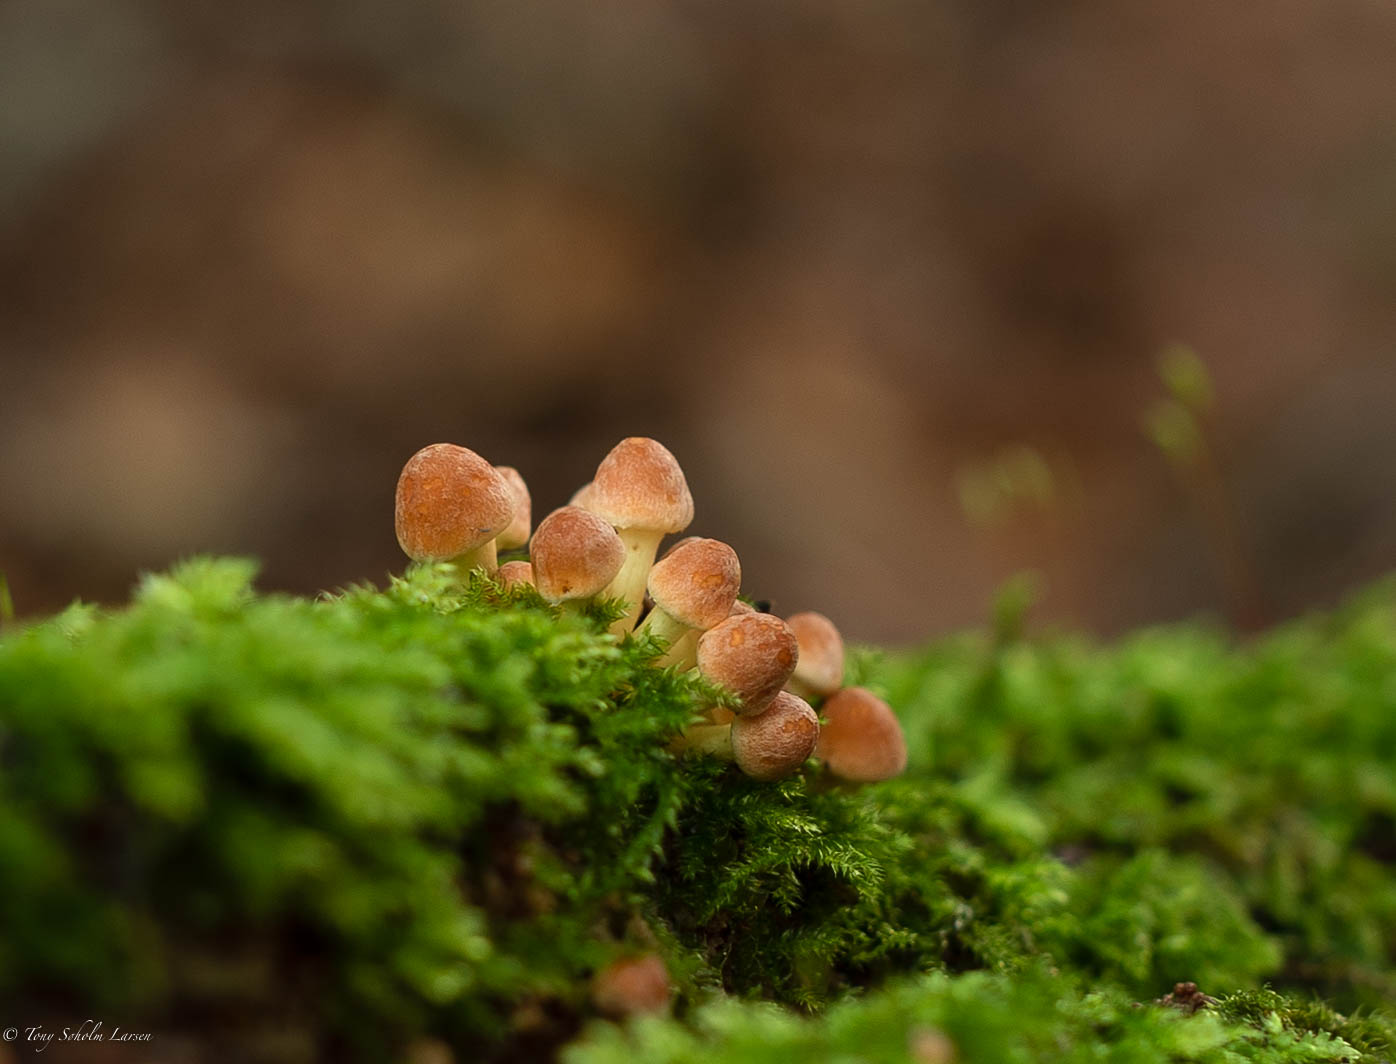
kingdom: Fungi
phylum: Basidiomycota
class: Agaricomycetes
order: Agaricales
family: Strophariaceae
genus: Hypholoma
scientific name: Hypholoma fasciculare
